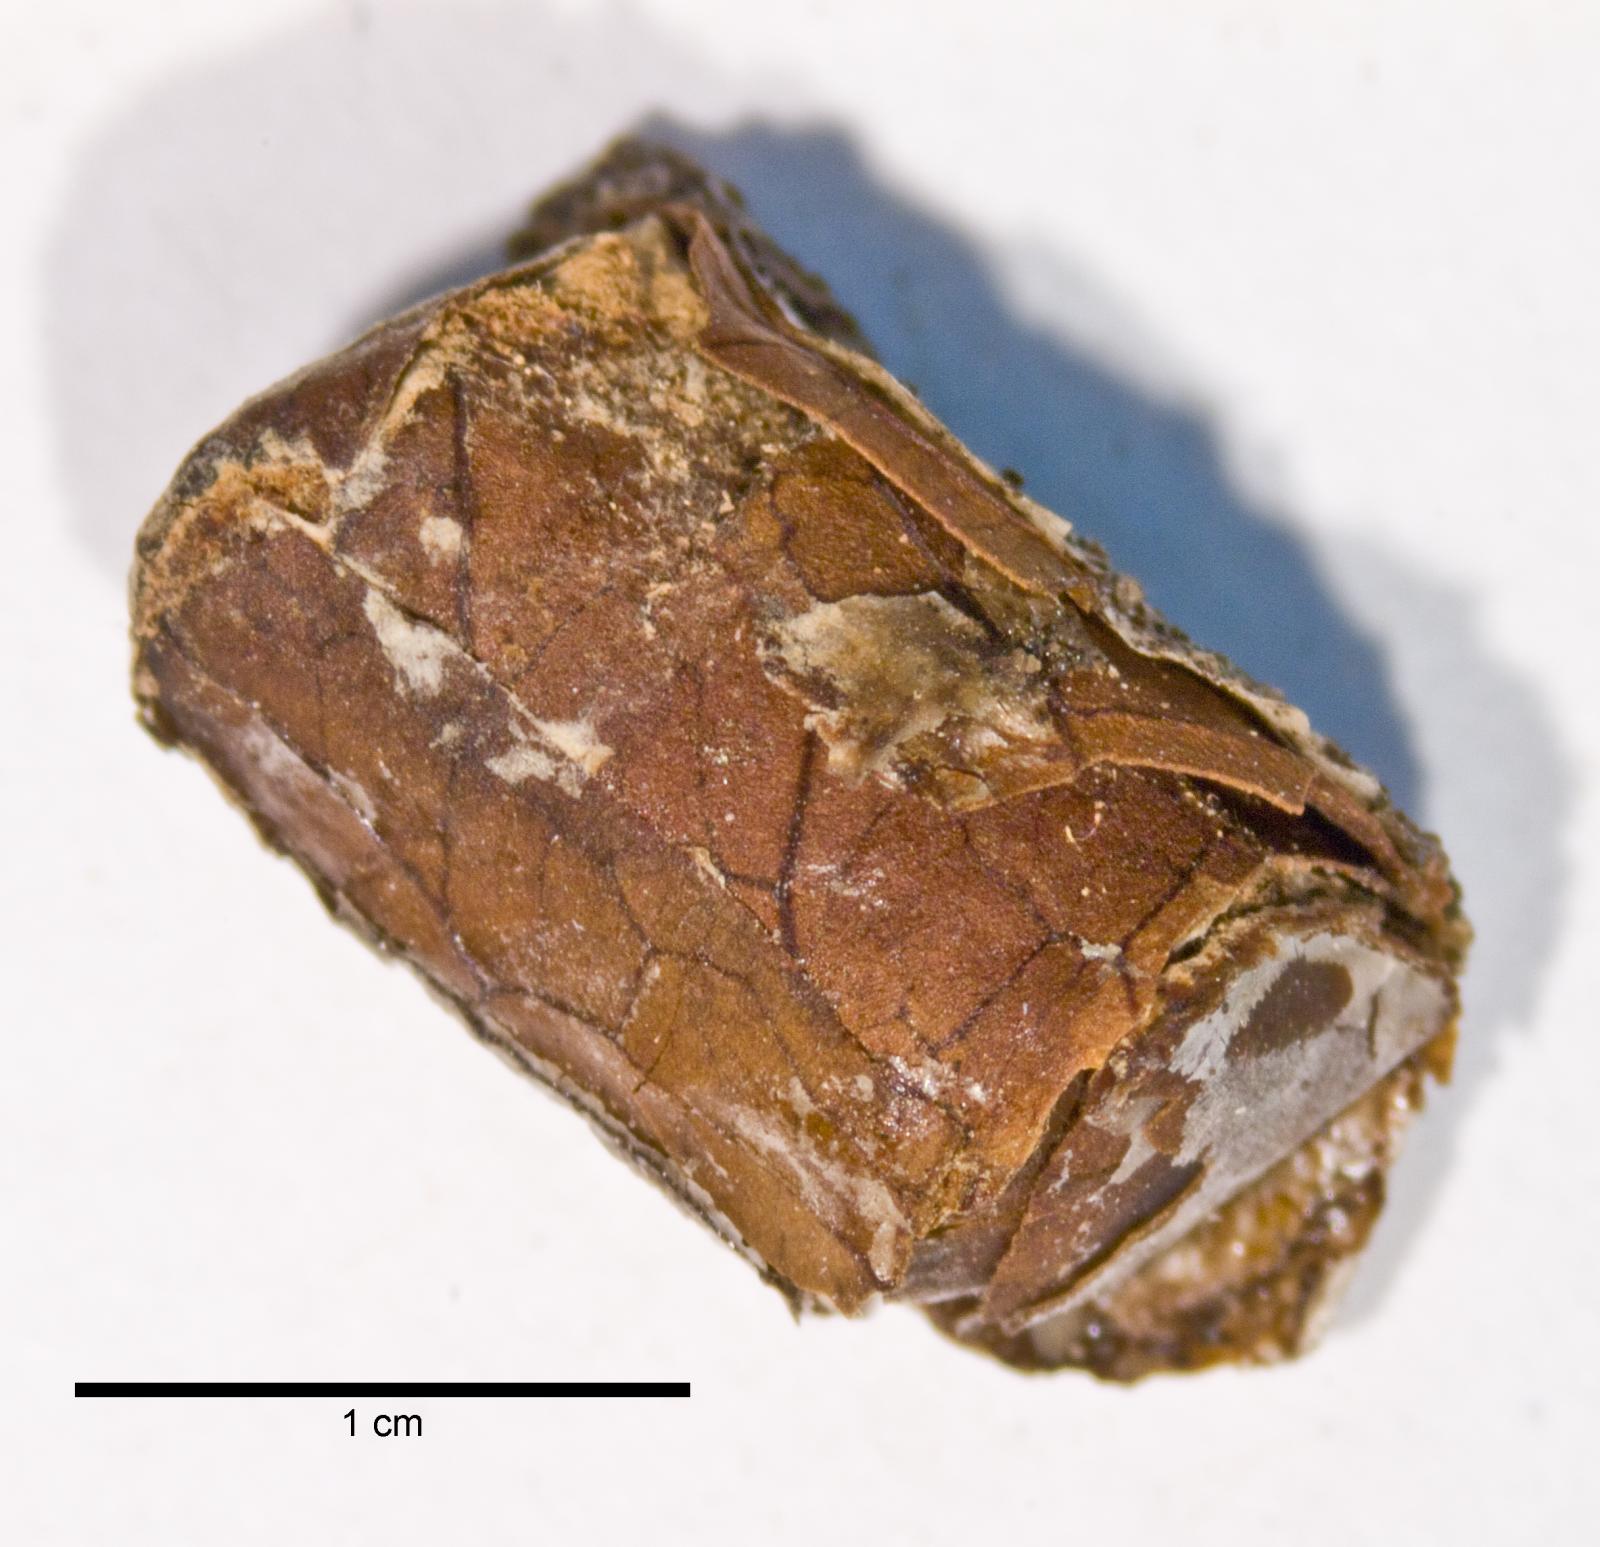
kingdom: Animalia
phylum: Arthropoda
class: Insecta
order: Hymenoptera
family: Megachilidae
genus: Megachile
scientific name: Megachile gentilis
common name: Leafcutter bee
